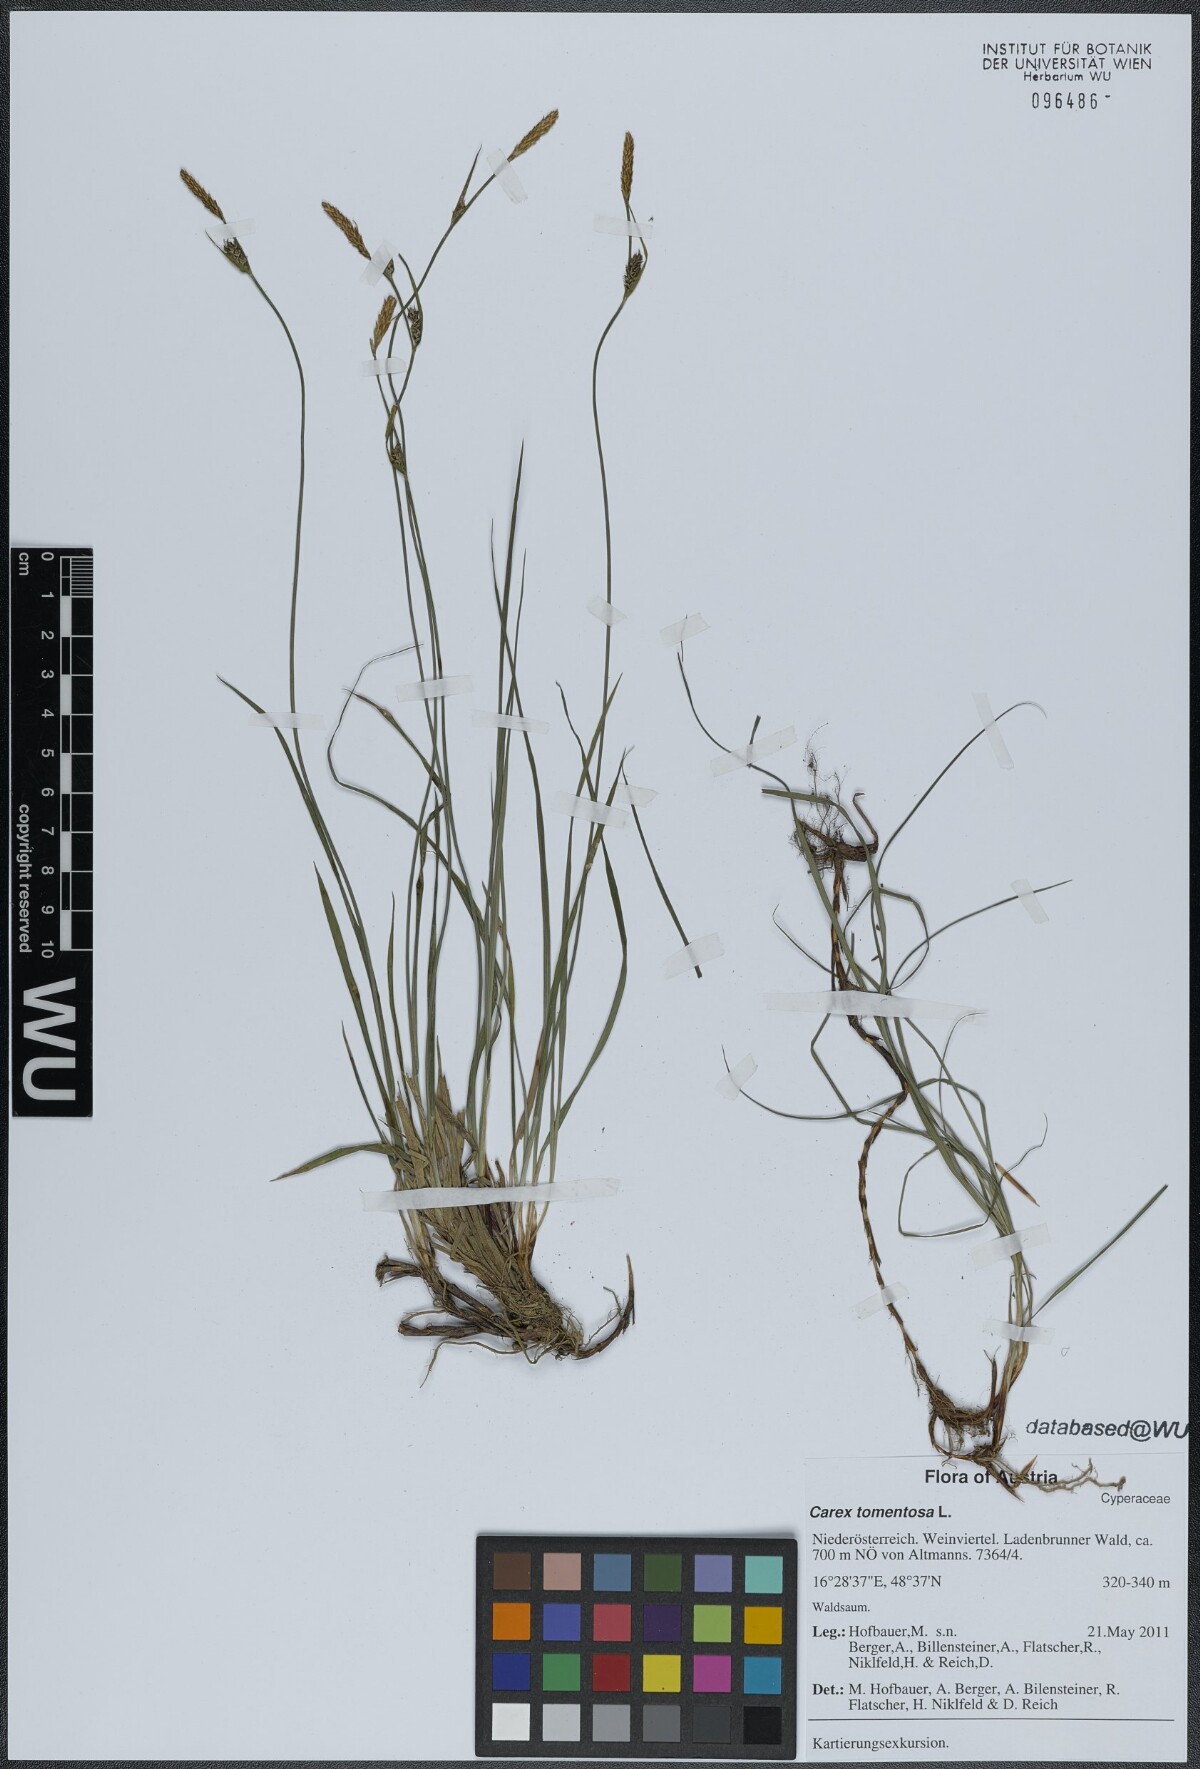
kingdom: Plantae
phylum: Tracheophyta
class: Liliopsida
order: Poales
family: Cyperaceae
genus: Carex
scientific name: Carex tomentosa
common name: Downy-fruited sedge
